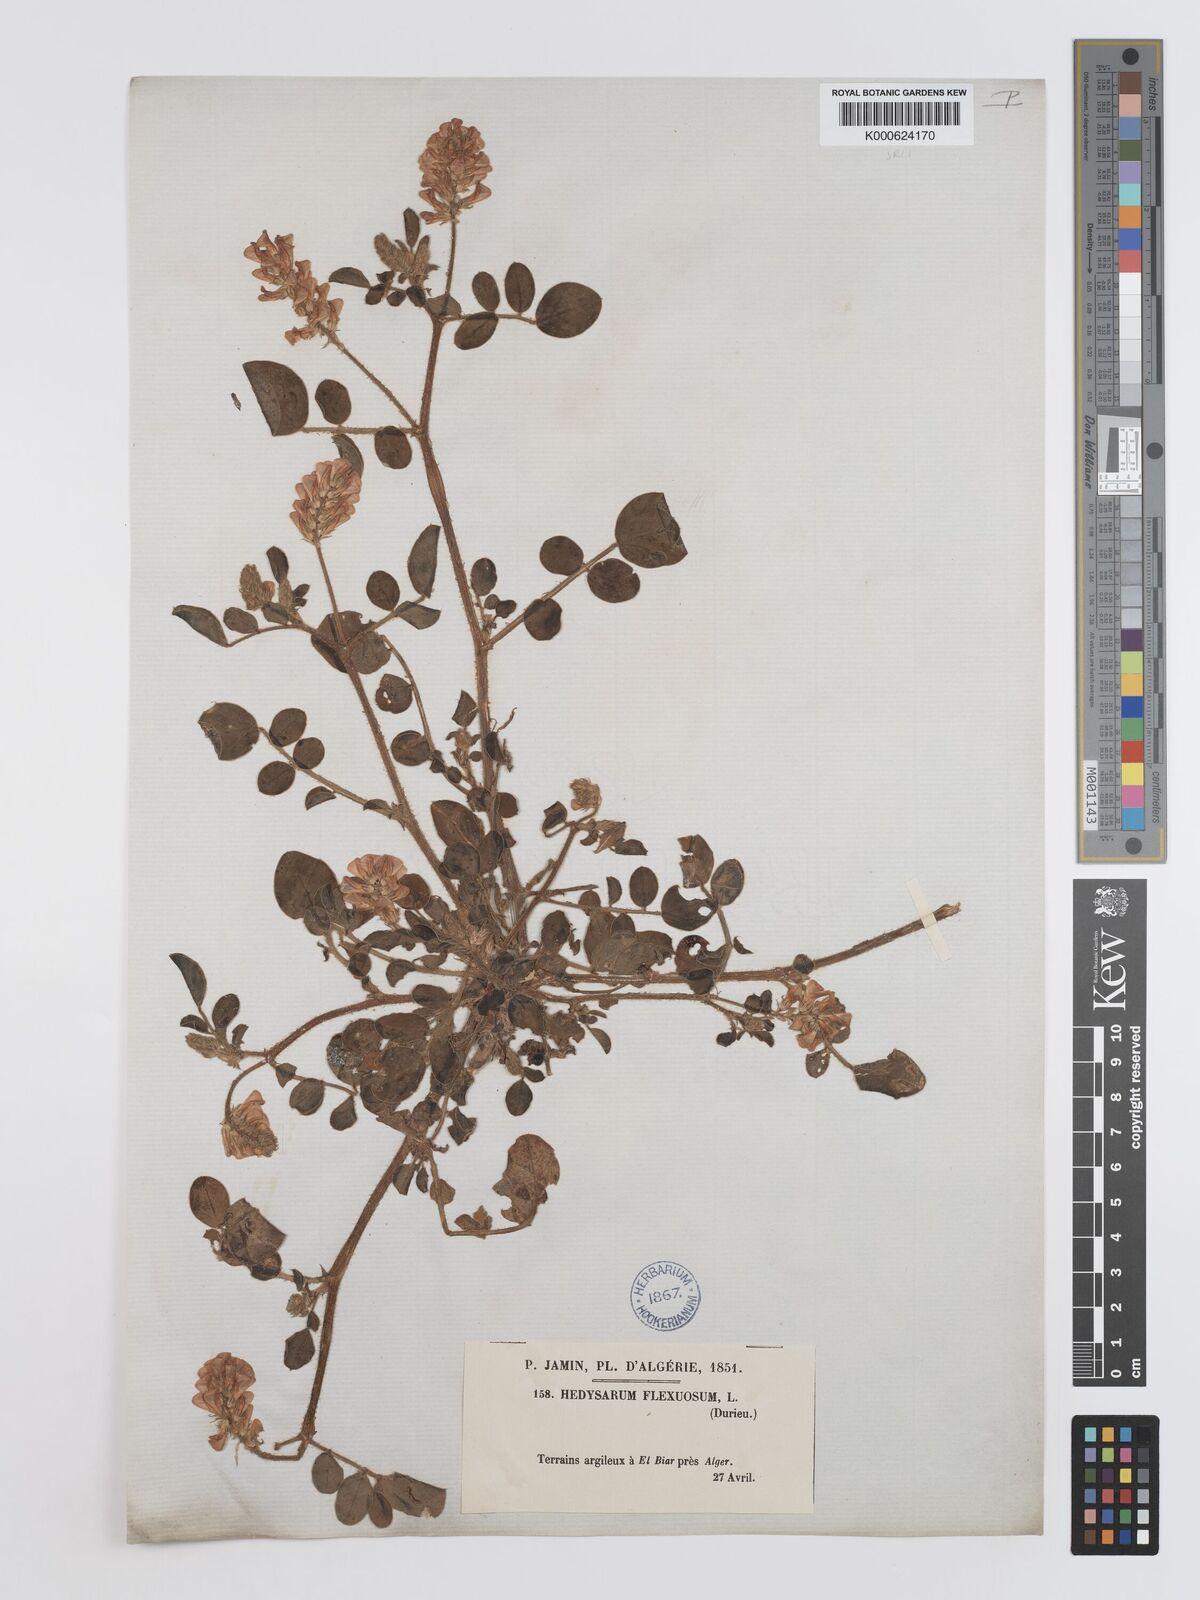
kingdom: Plantae
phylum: Tracheophyta
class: Magnoliopsida
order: Fabales
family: Fabaceae
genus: Sulla
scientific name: Sulla flexuosa
